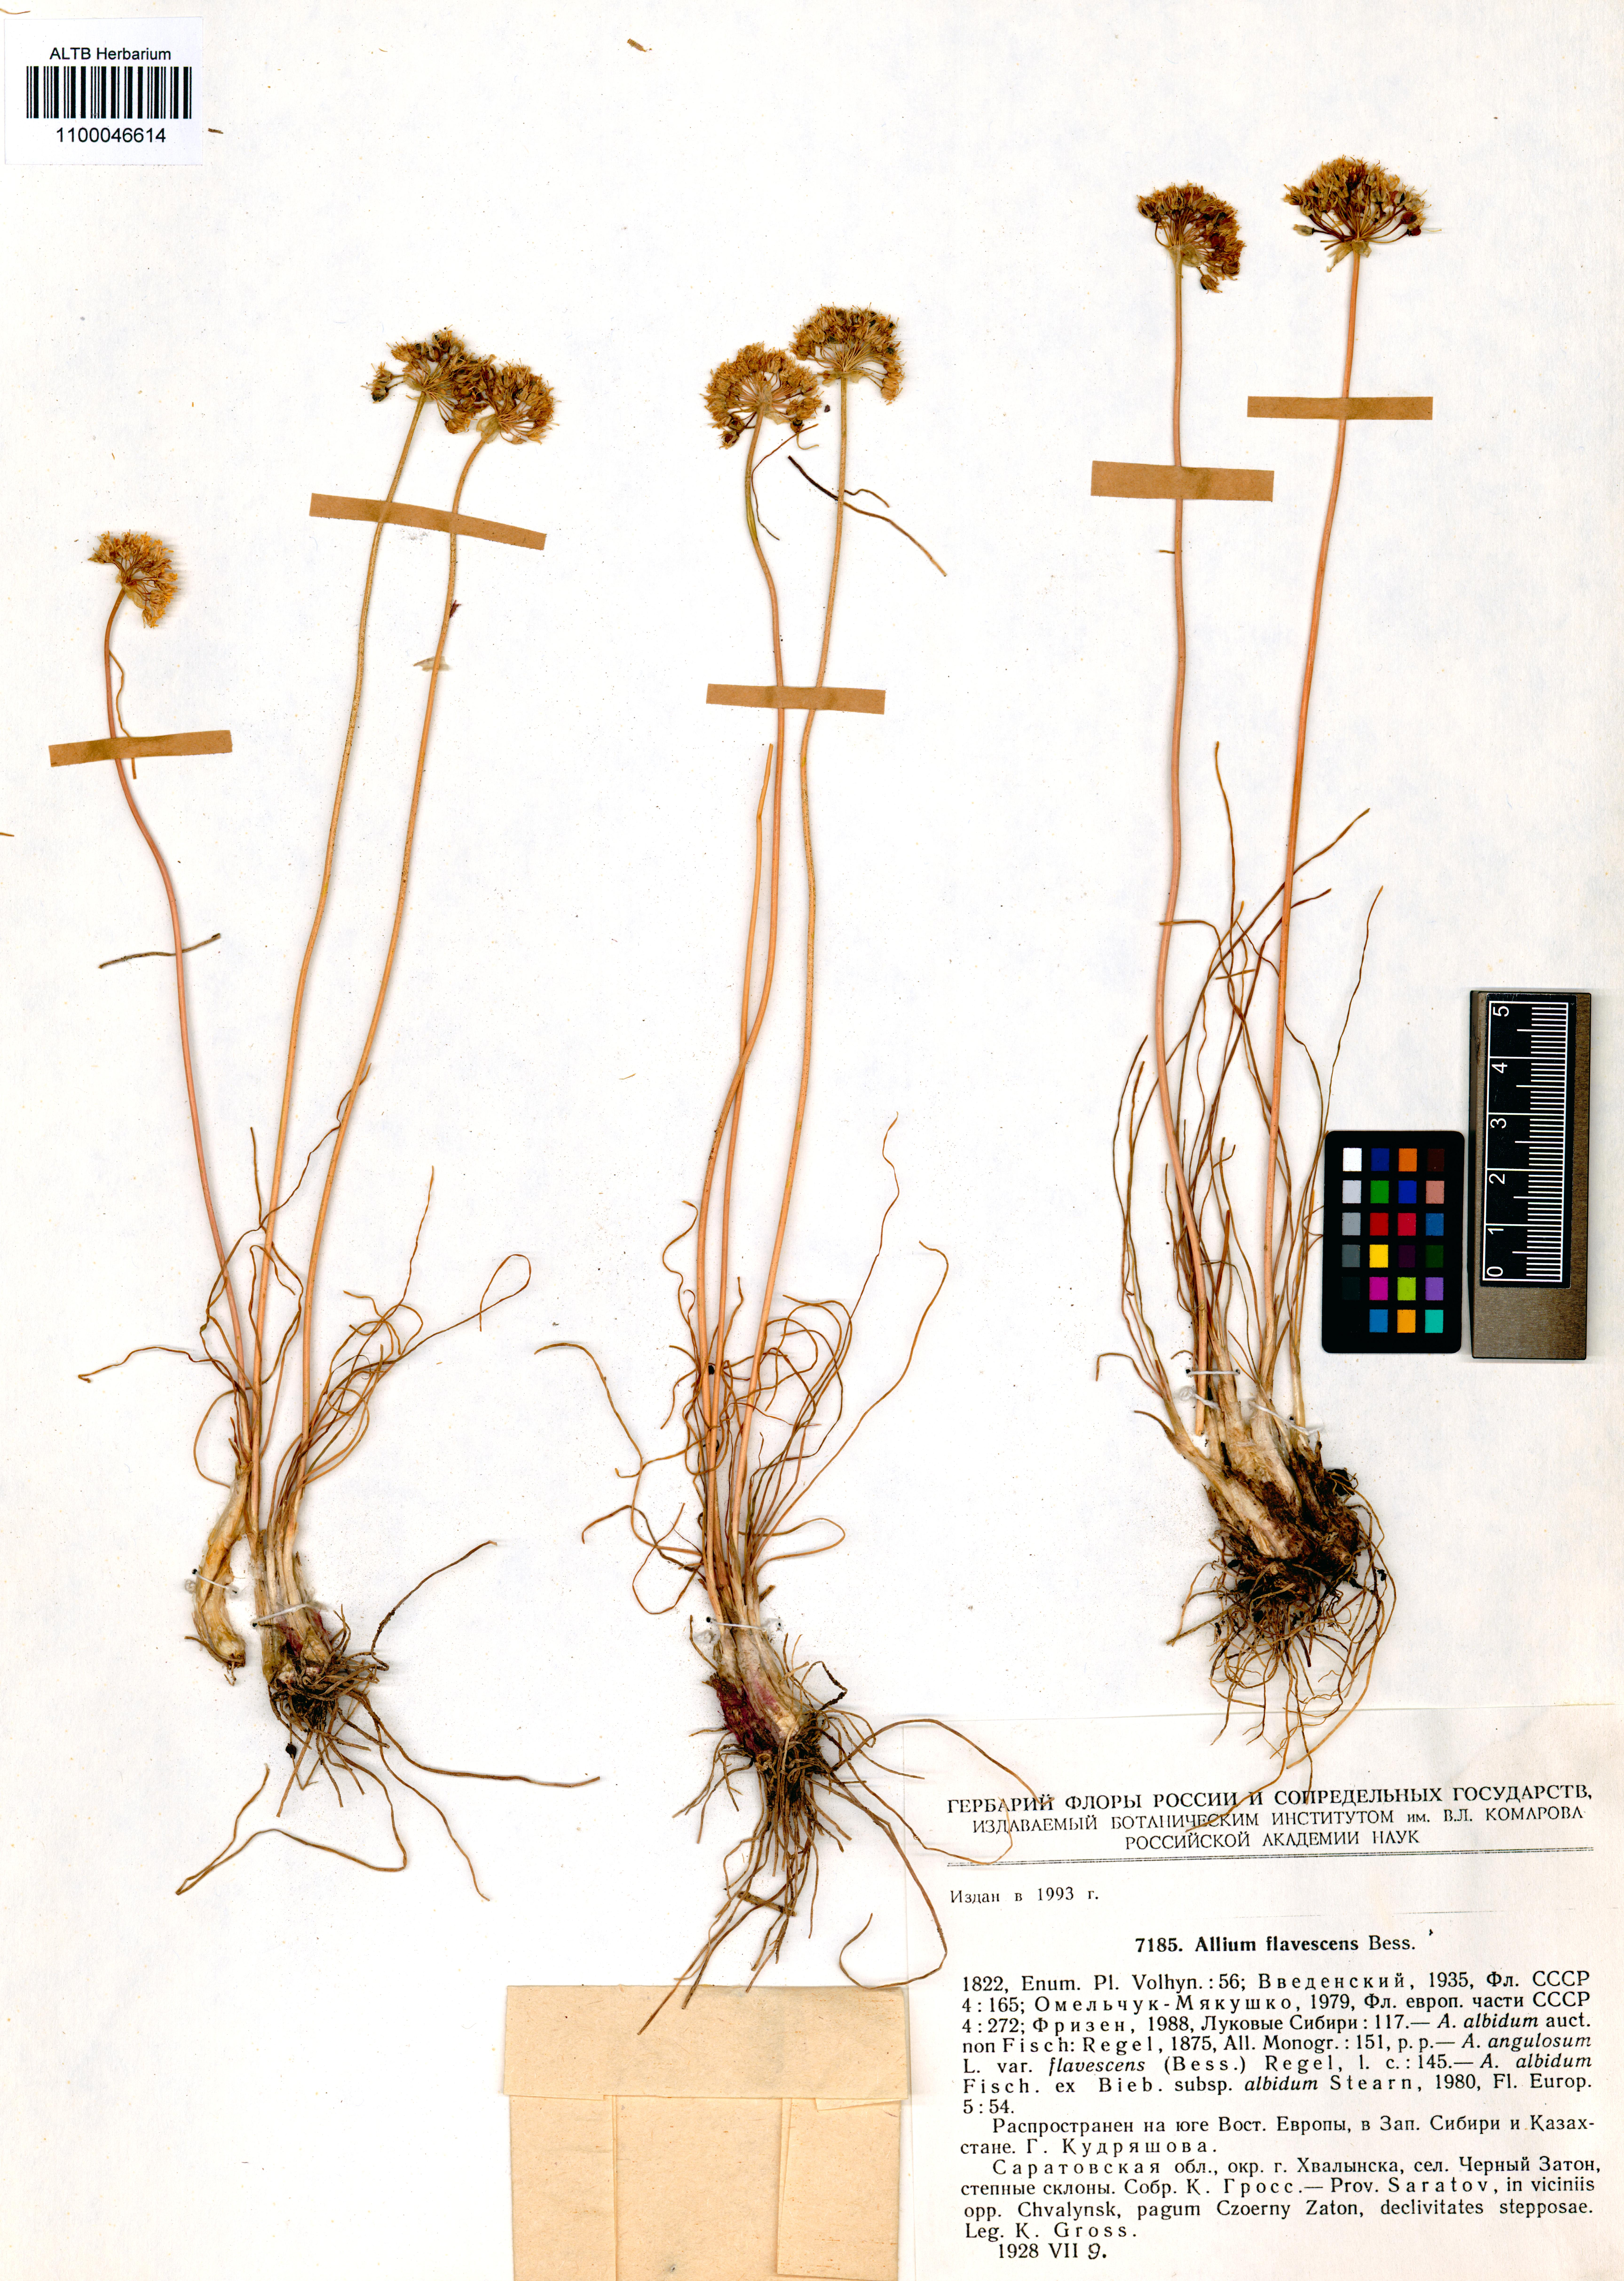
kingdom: Plantae
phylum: Tracheophyta
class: Liliopsida
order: Asparagales
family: Amaryllidaceae
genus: Allium
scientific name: Allium flavescens
